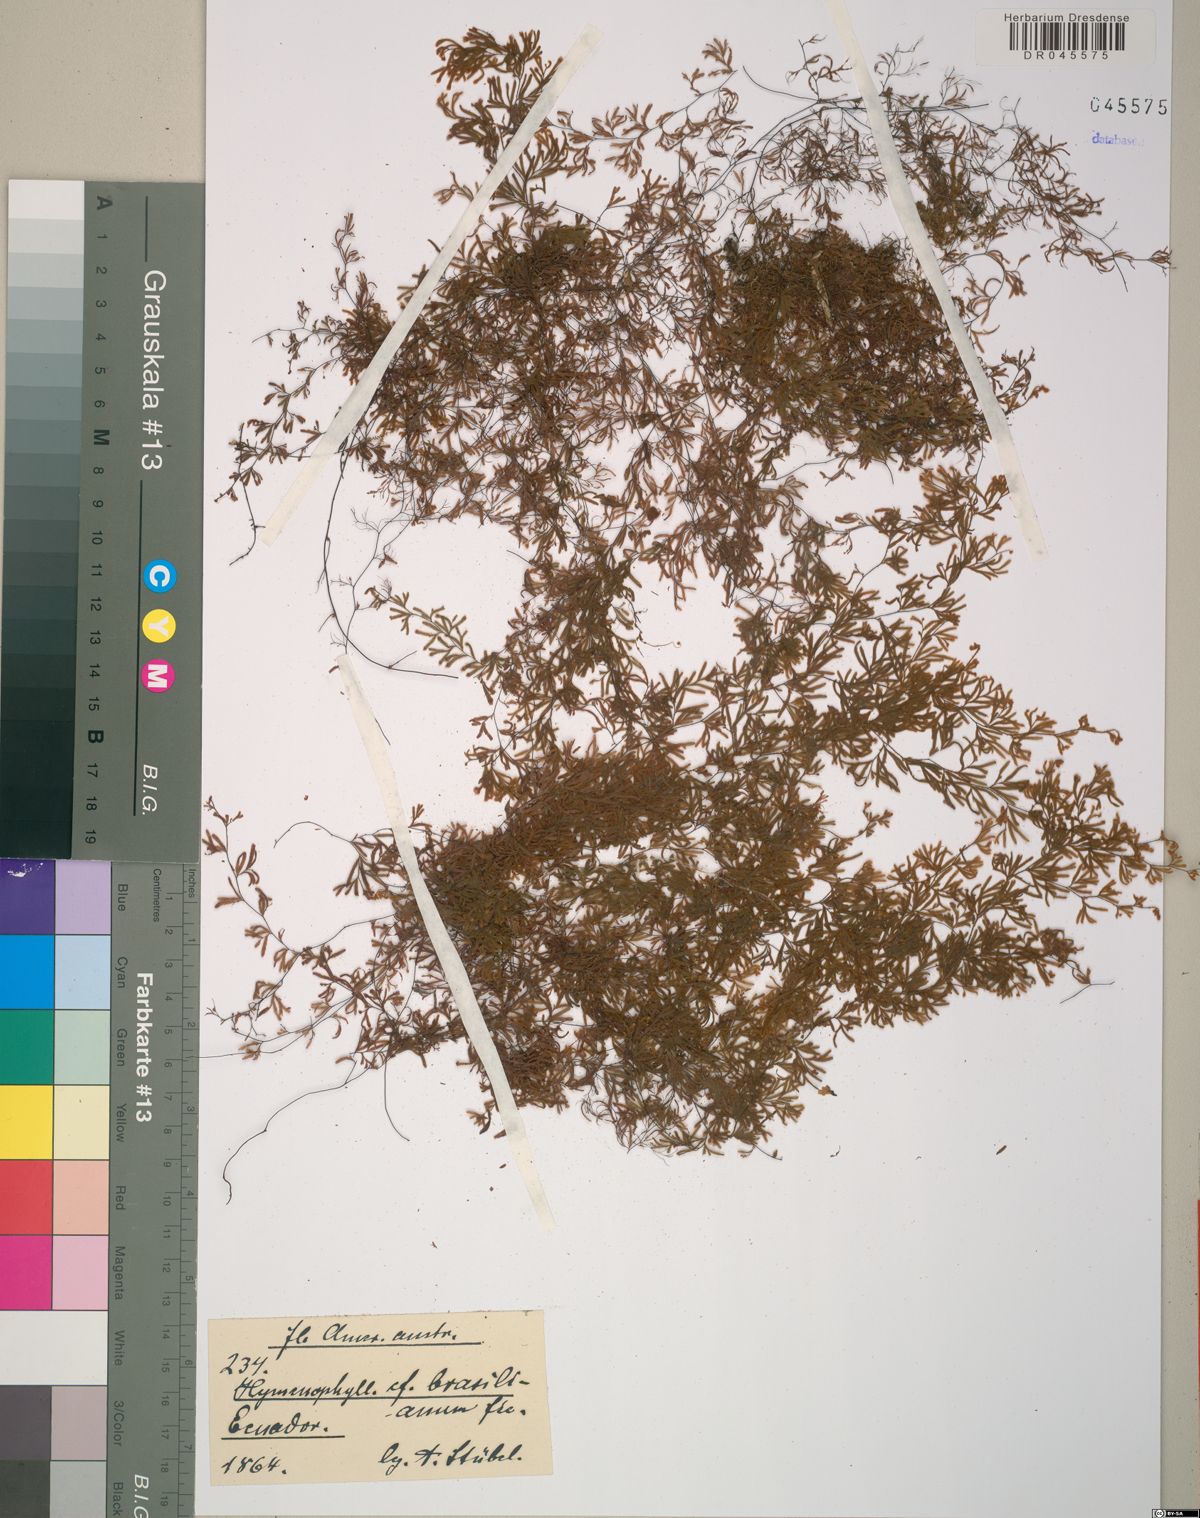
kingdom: Plantae
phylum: Tracheophyta
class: Polypodiopsida
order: Hymenophyllales
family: Hymenophyllaceae
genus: Hymenophyllum
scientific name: Hymenophyllum crispum
